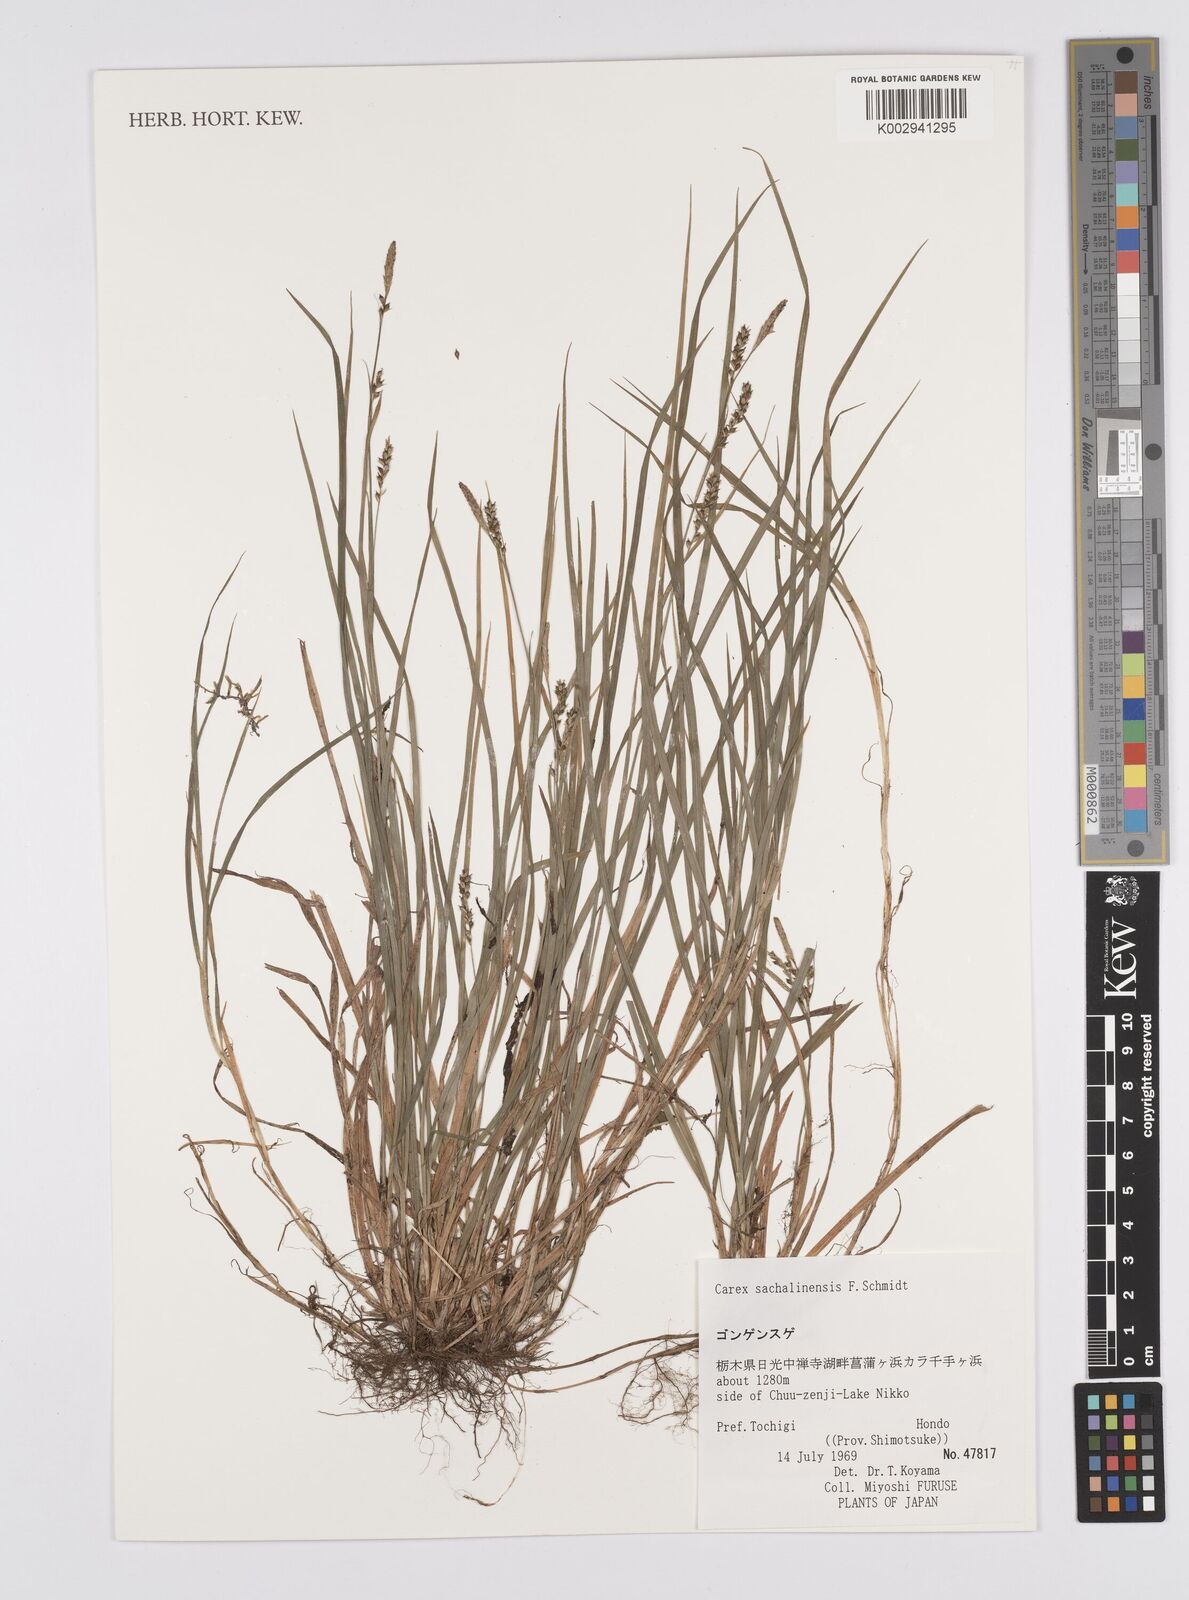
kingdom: Plantae
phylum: Tracheophyta
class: Liliopsida
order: Poales
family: Cyperaceae
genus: Carex
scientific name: Carex pisiformis
